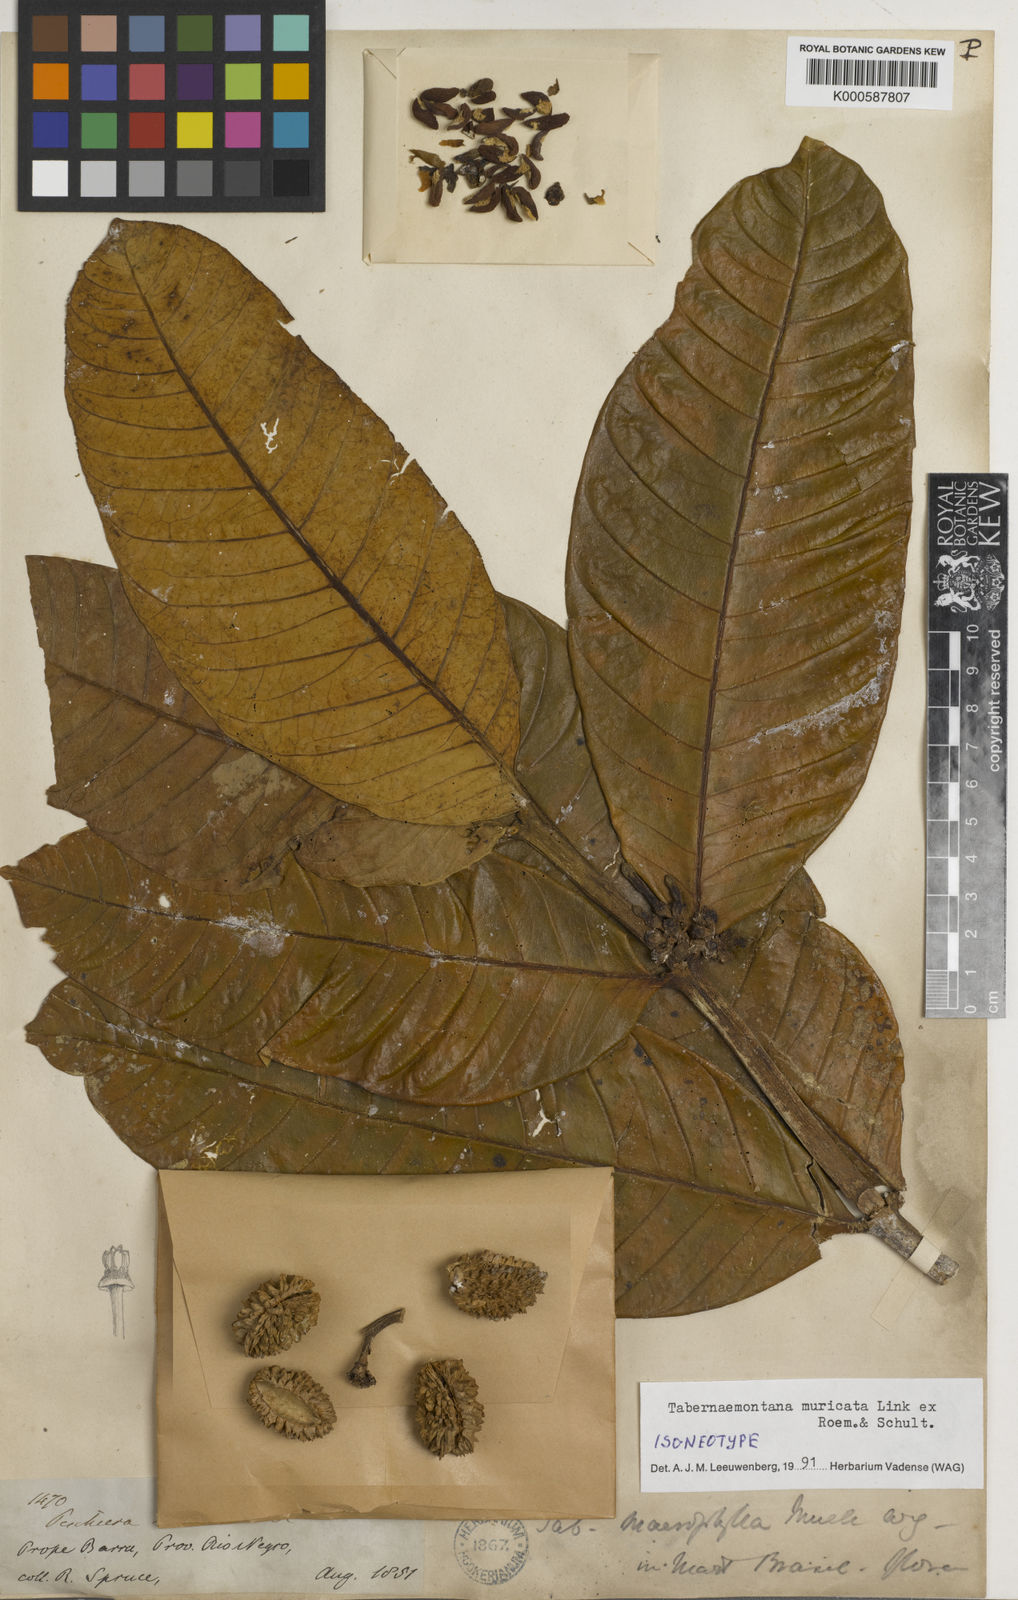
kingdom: Plantae
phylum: Tracheophyta
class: Magnoliopsida
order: Gentianales
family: Apocynaceae
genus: Tabernaemontana
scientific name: Tabernaemontana muricata
